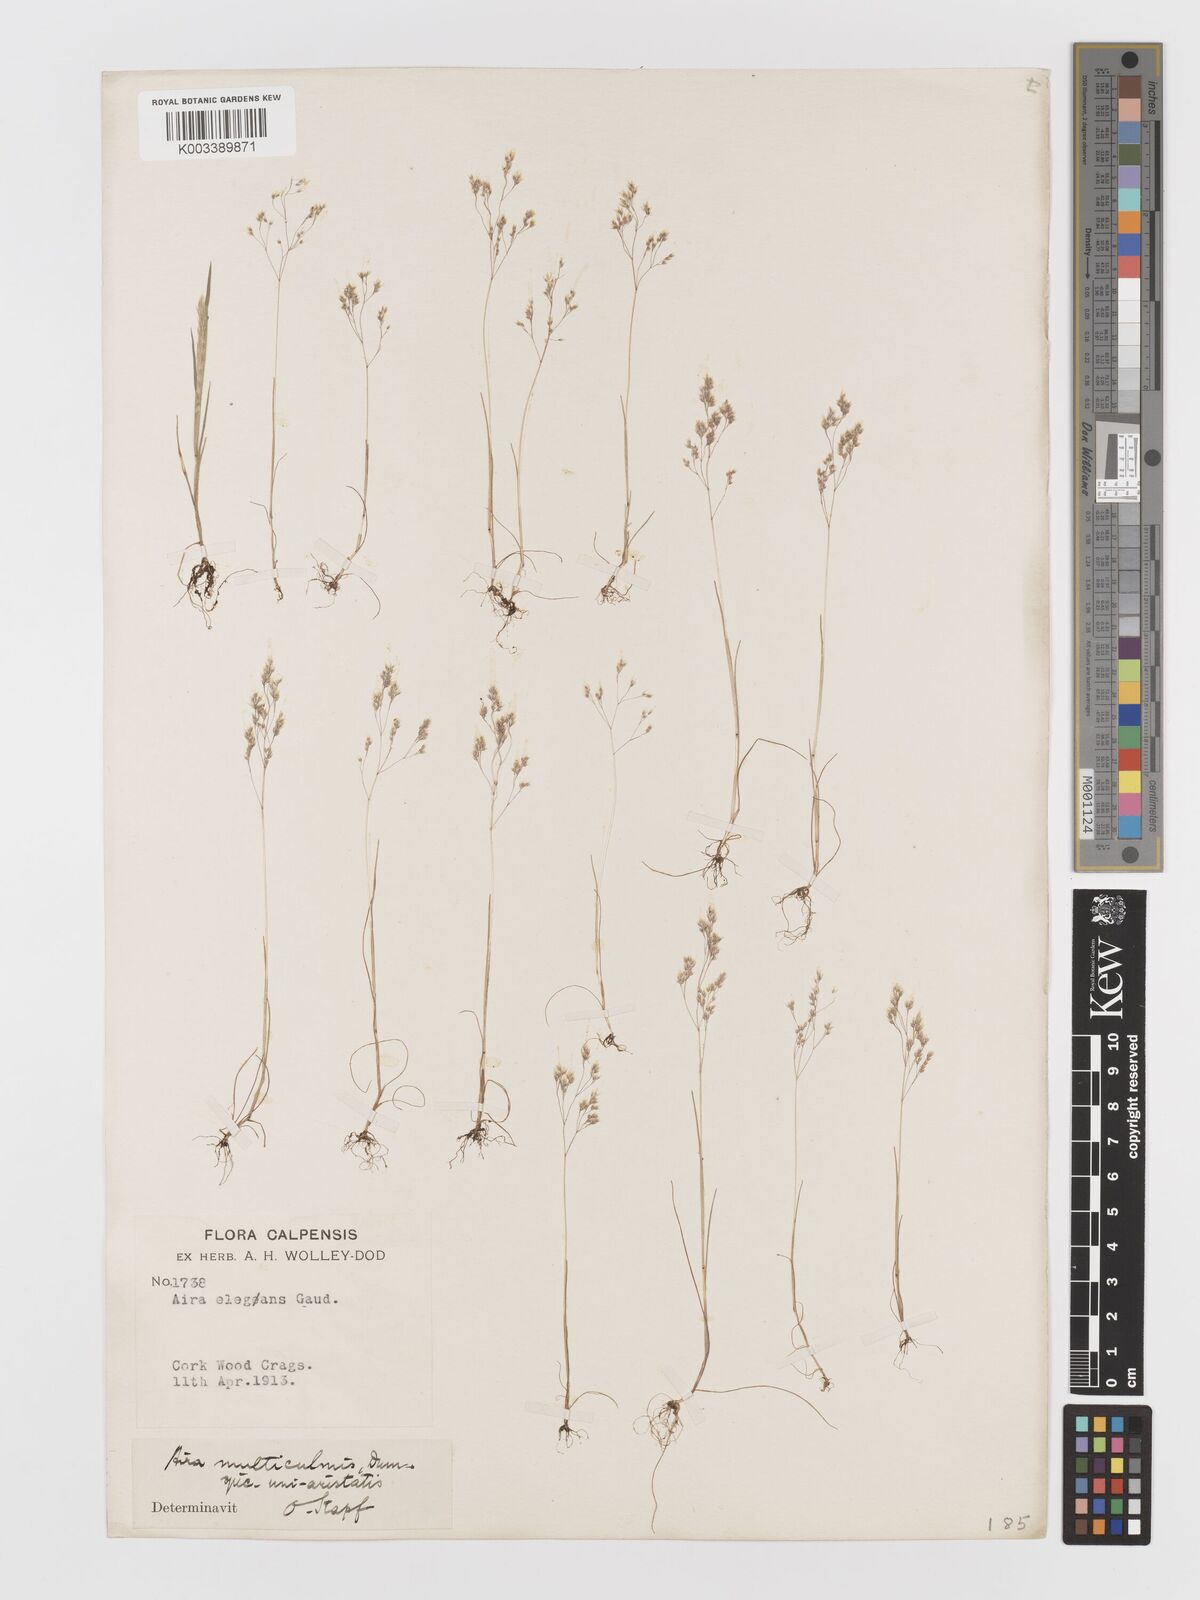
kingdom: Plantae
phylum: Tracheophyta
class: Liliopsida
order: Poales
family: Poaceae
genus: Aira
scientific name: Aira elegans
